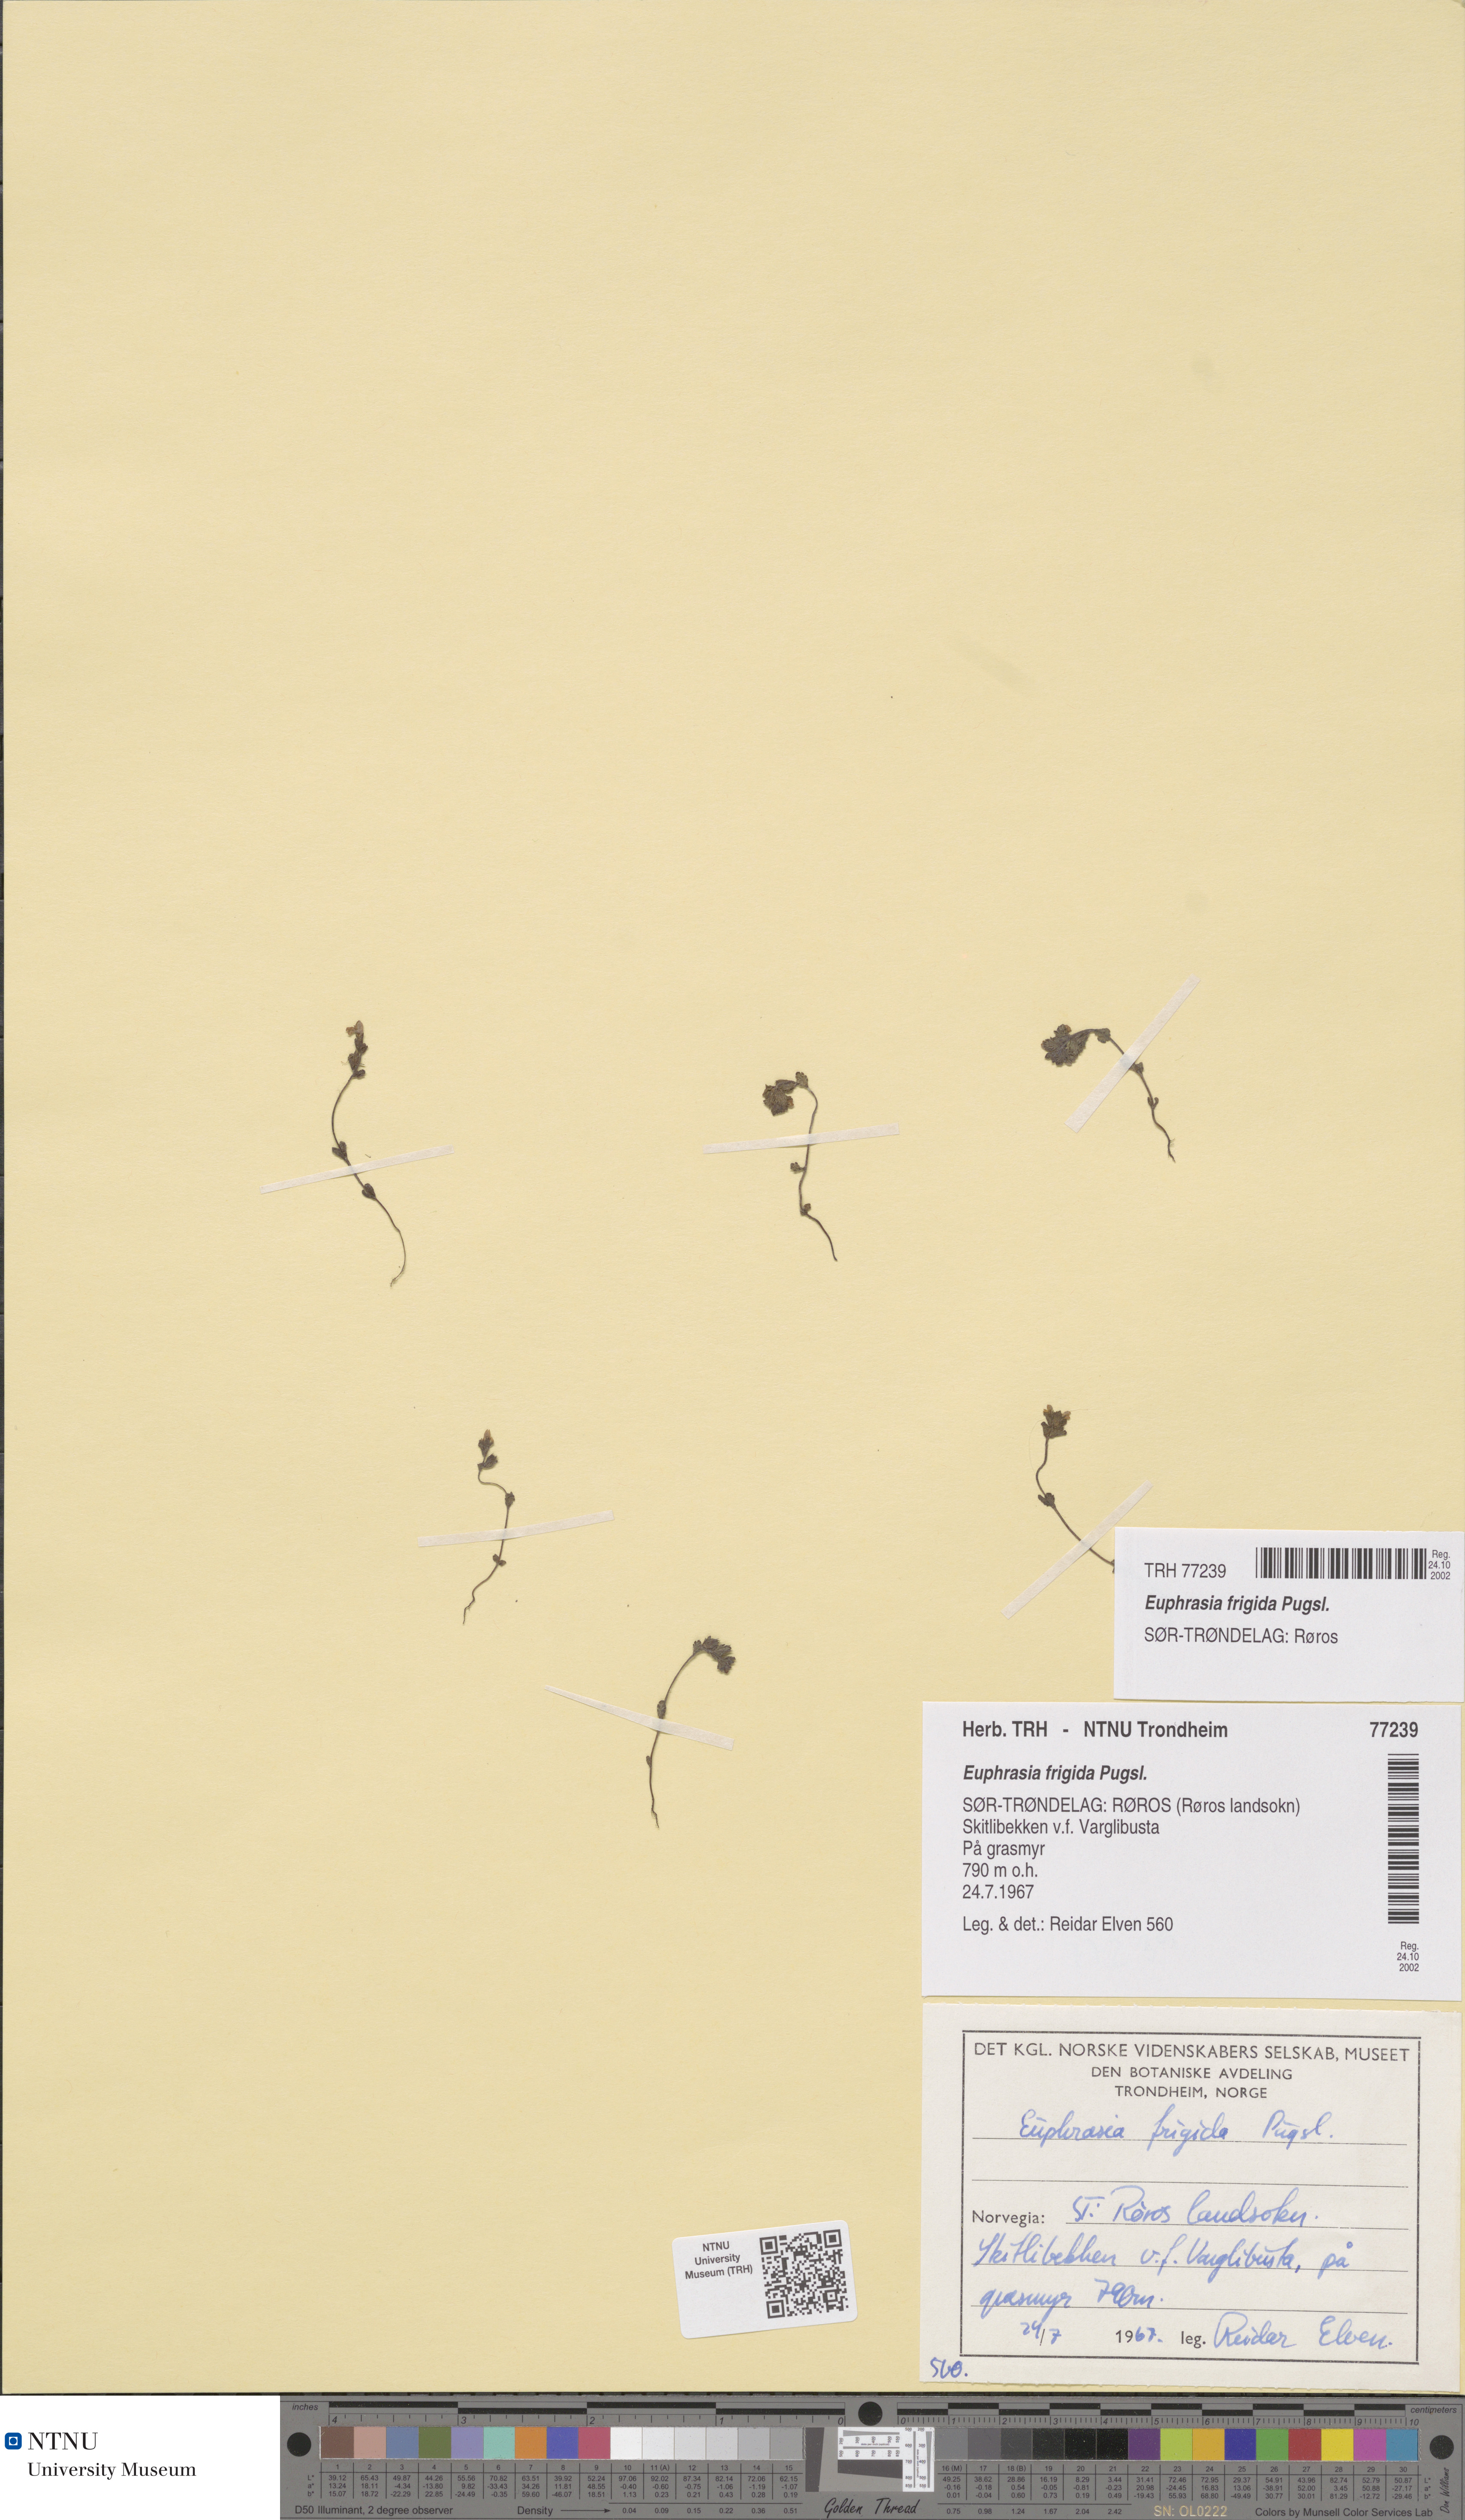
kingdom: Plantae
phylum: Tracheophyta
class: Magnoliopsida
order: Lamiales
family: Orobanchaceae
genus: Euphrasia
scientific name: Euphrasia wettsteinii
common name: Wettstein's eyebright
